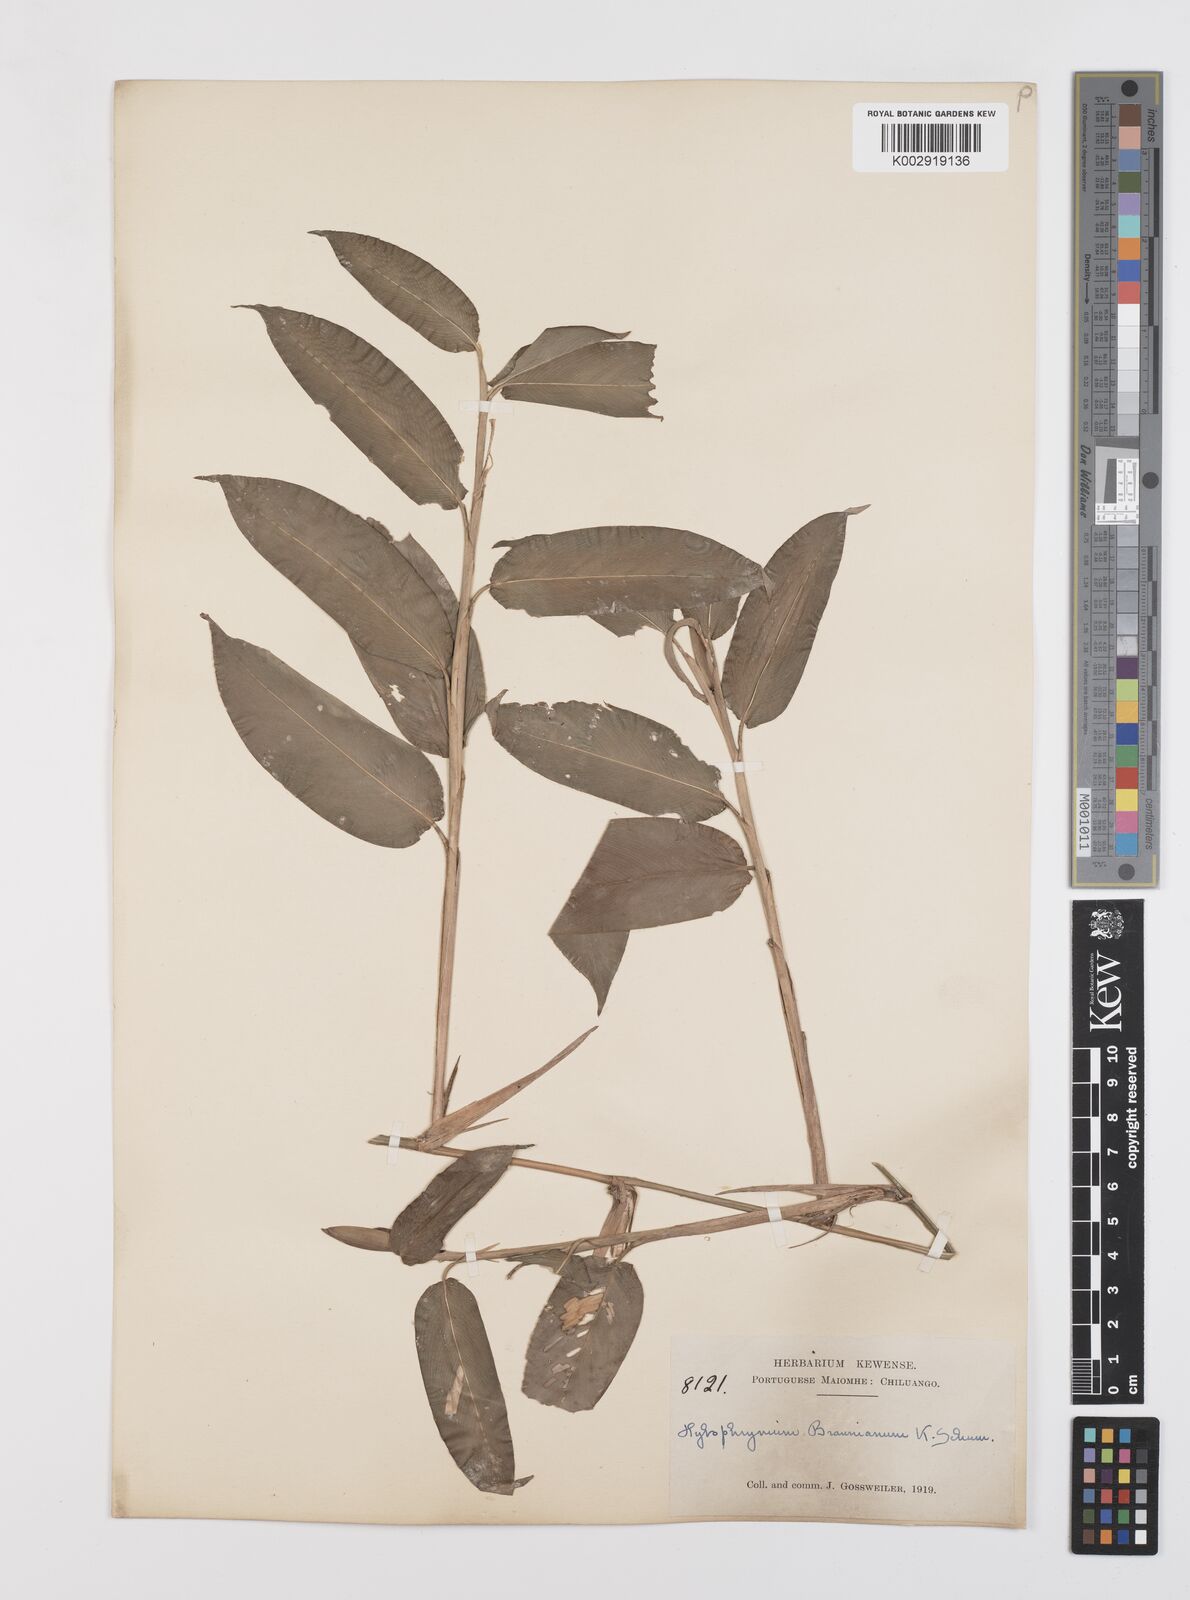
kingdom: Plantae
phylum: Tracheophyta
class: Liliopsida
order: Zingiberales
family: Marantaceae
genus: Trachyphrynium
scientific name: Trachyphrynium braunianum
